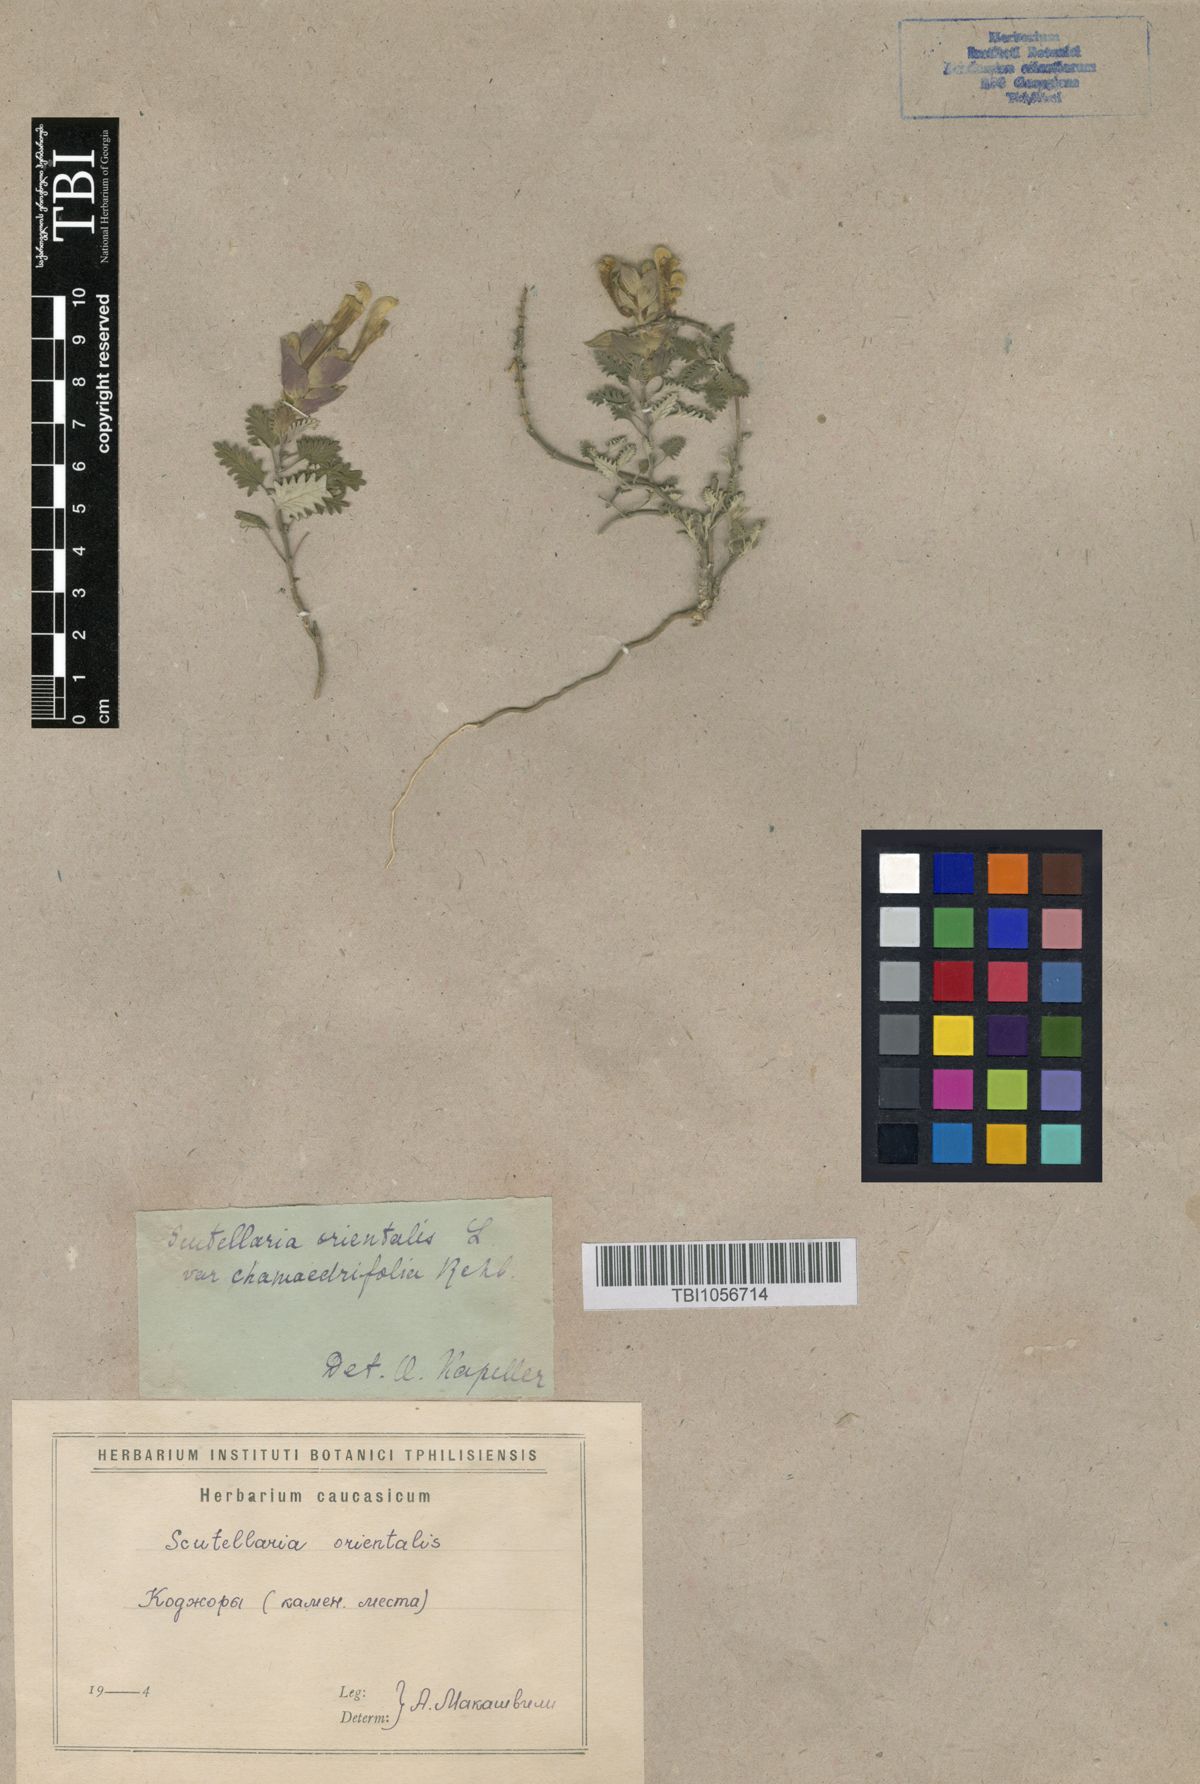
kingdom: Plantae
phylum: Tracheophyta
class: Magnoliopsida
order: Lamiales
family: Lamiaceae
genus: Scutellaria
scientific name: Scutellaria orientalis
